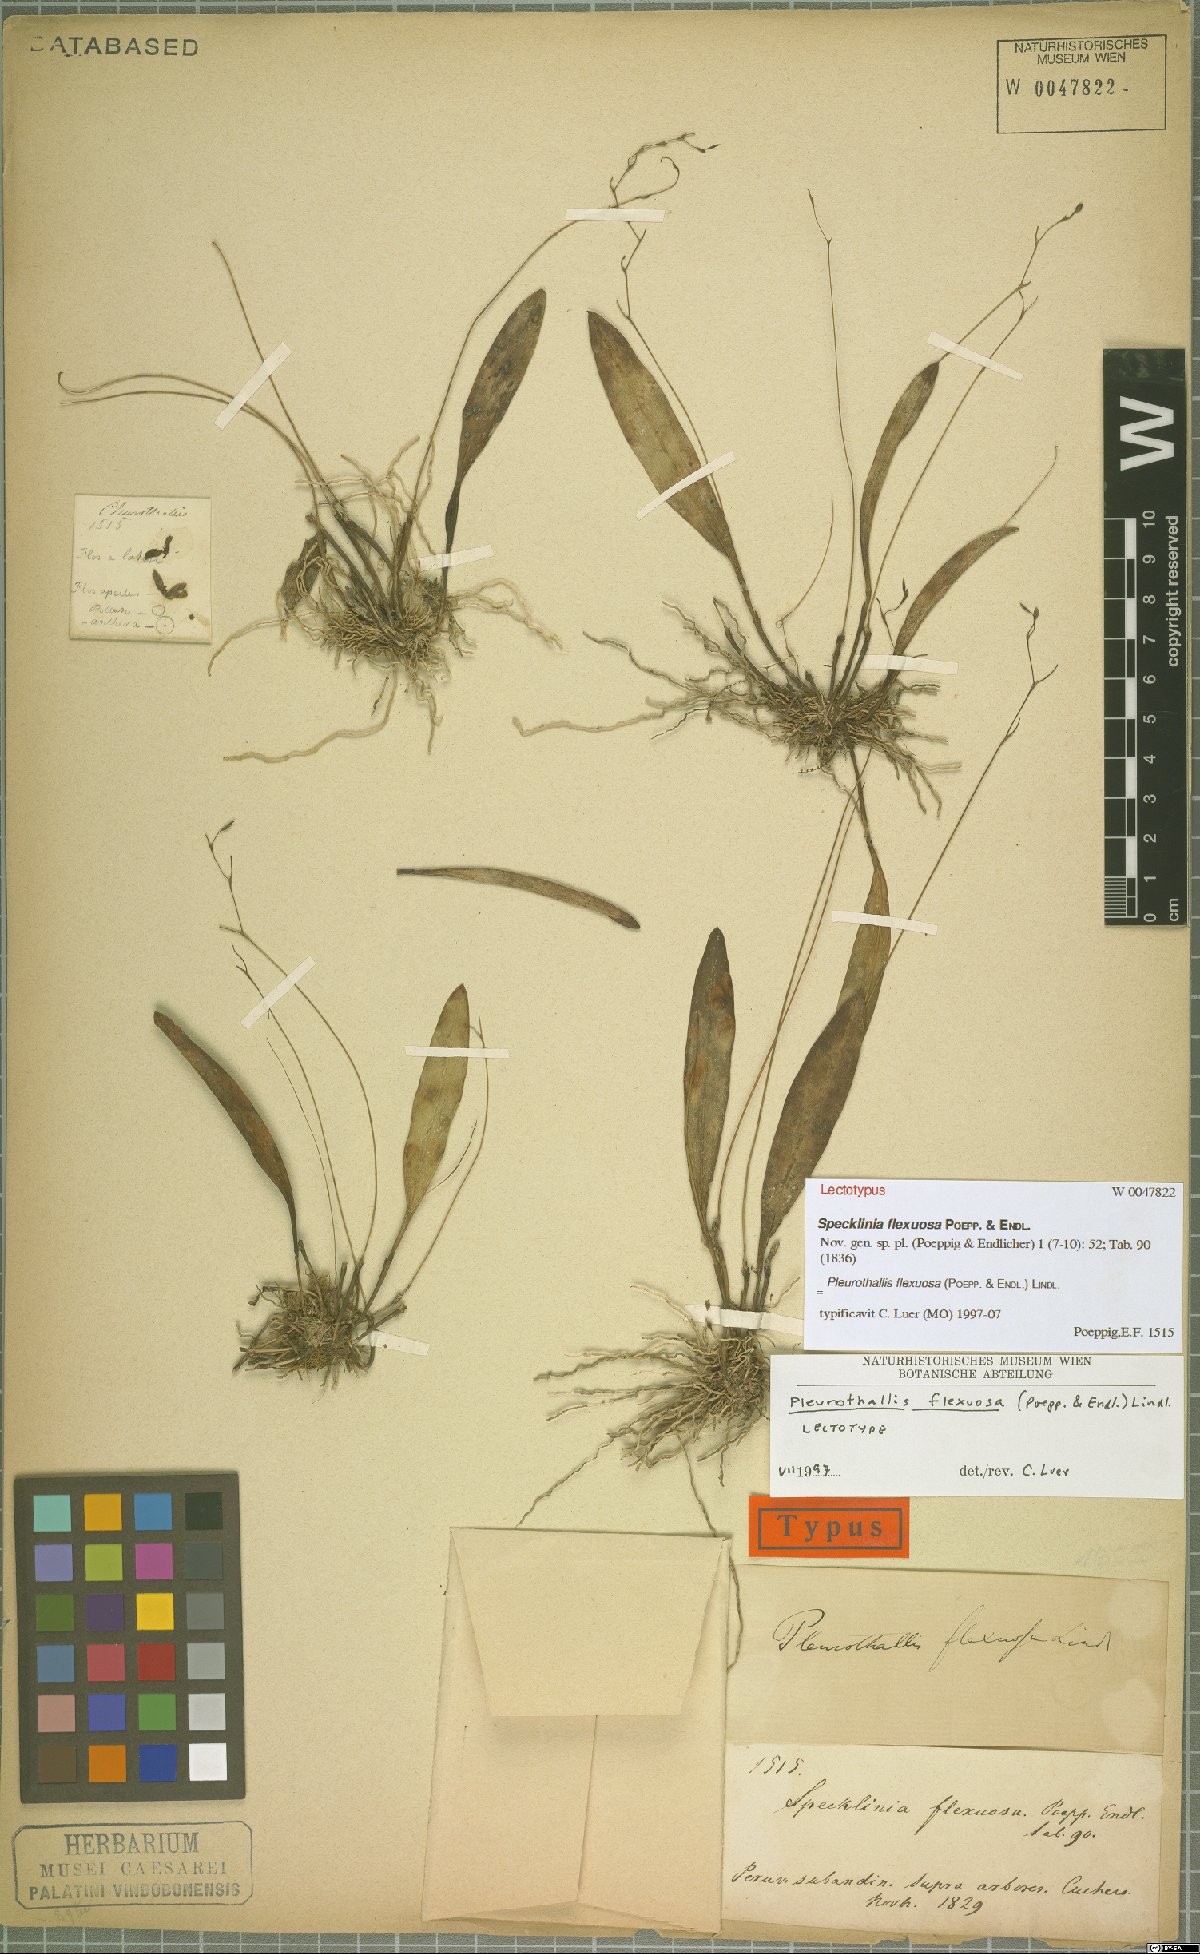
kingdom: Plantae
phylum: Tracheophyta
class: Liliopsida
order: Asparagales
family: Orchidaceae
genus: Stelis
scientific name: Stelis kefersteiniana
